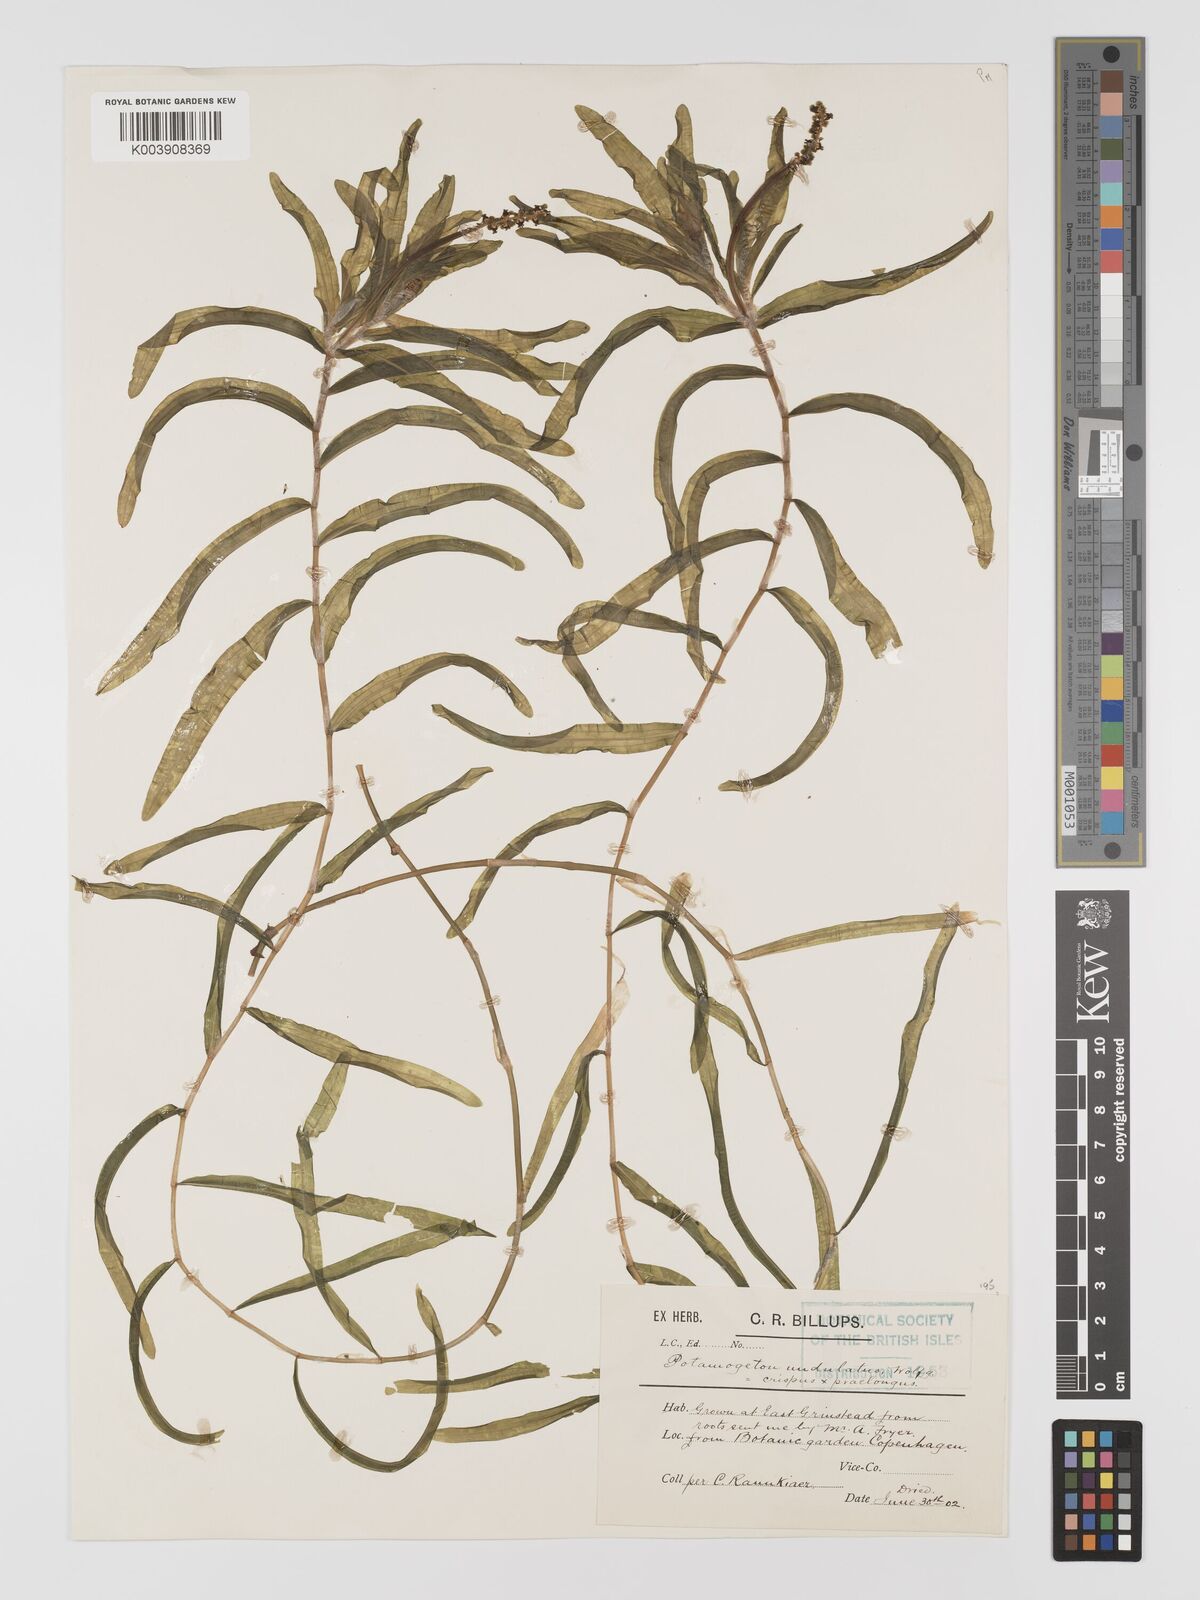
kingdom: Plantae
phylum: Tracheophyta
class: Liliopsida
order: Alismatales
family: Potamogetonaceae
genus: Potamogeton
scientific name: Potamogeton crispus
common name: Curled pondweed
